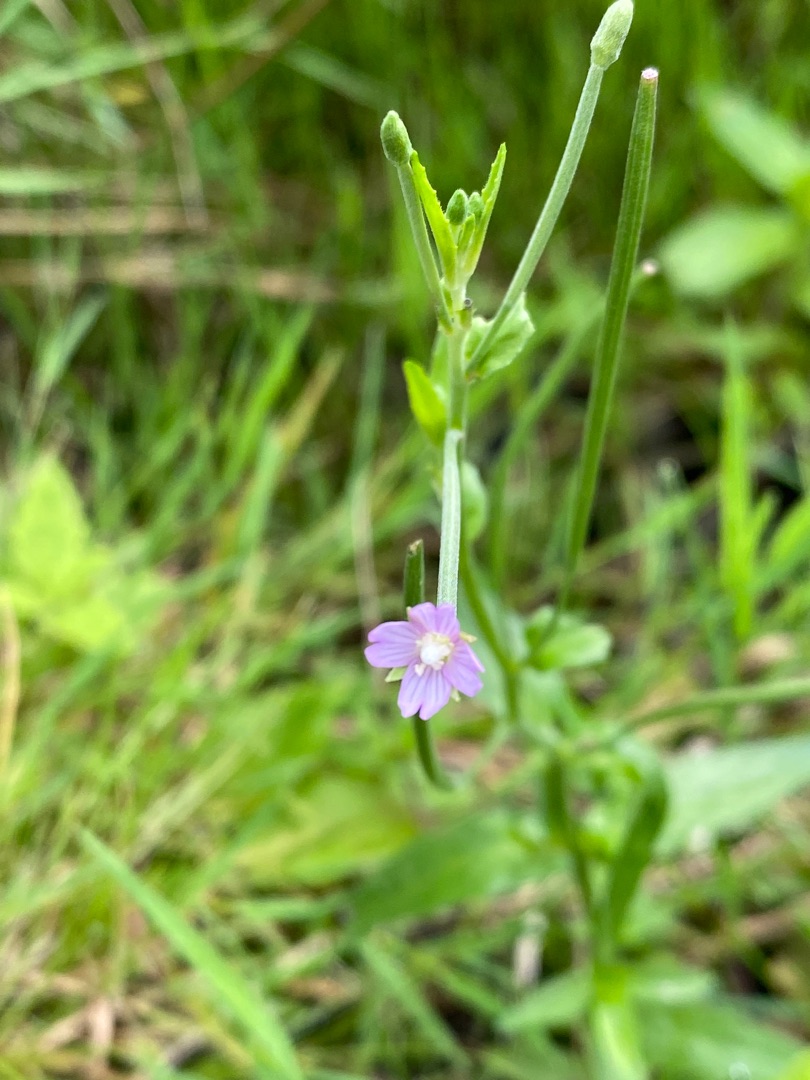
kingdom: Plantae
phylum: Tracheophyta
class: Magnoliopsida
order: Myrtales
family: Onagraceae
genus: Epilobium
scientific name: Epilobium
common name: Dueurtslægten
